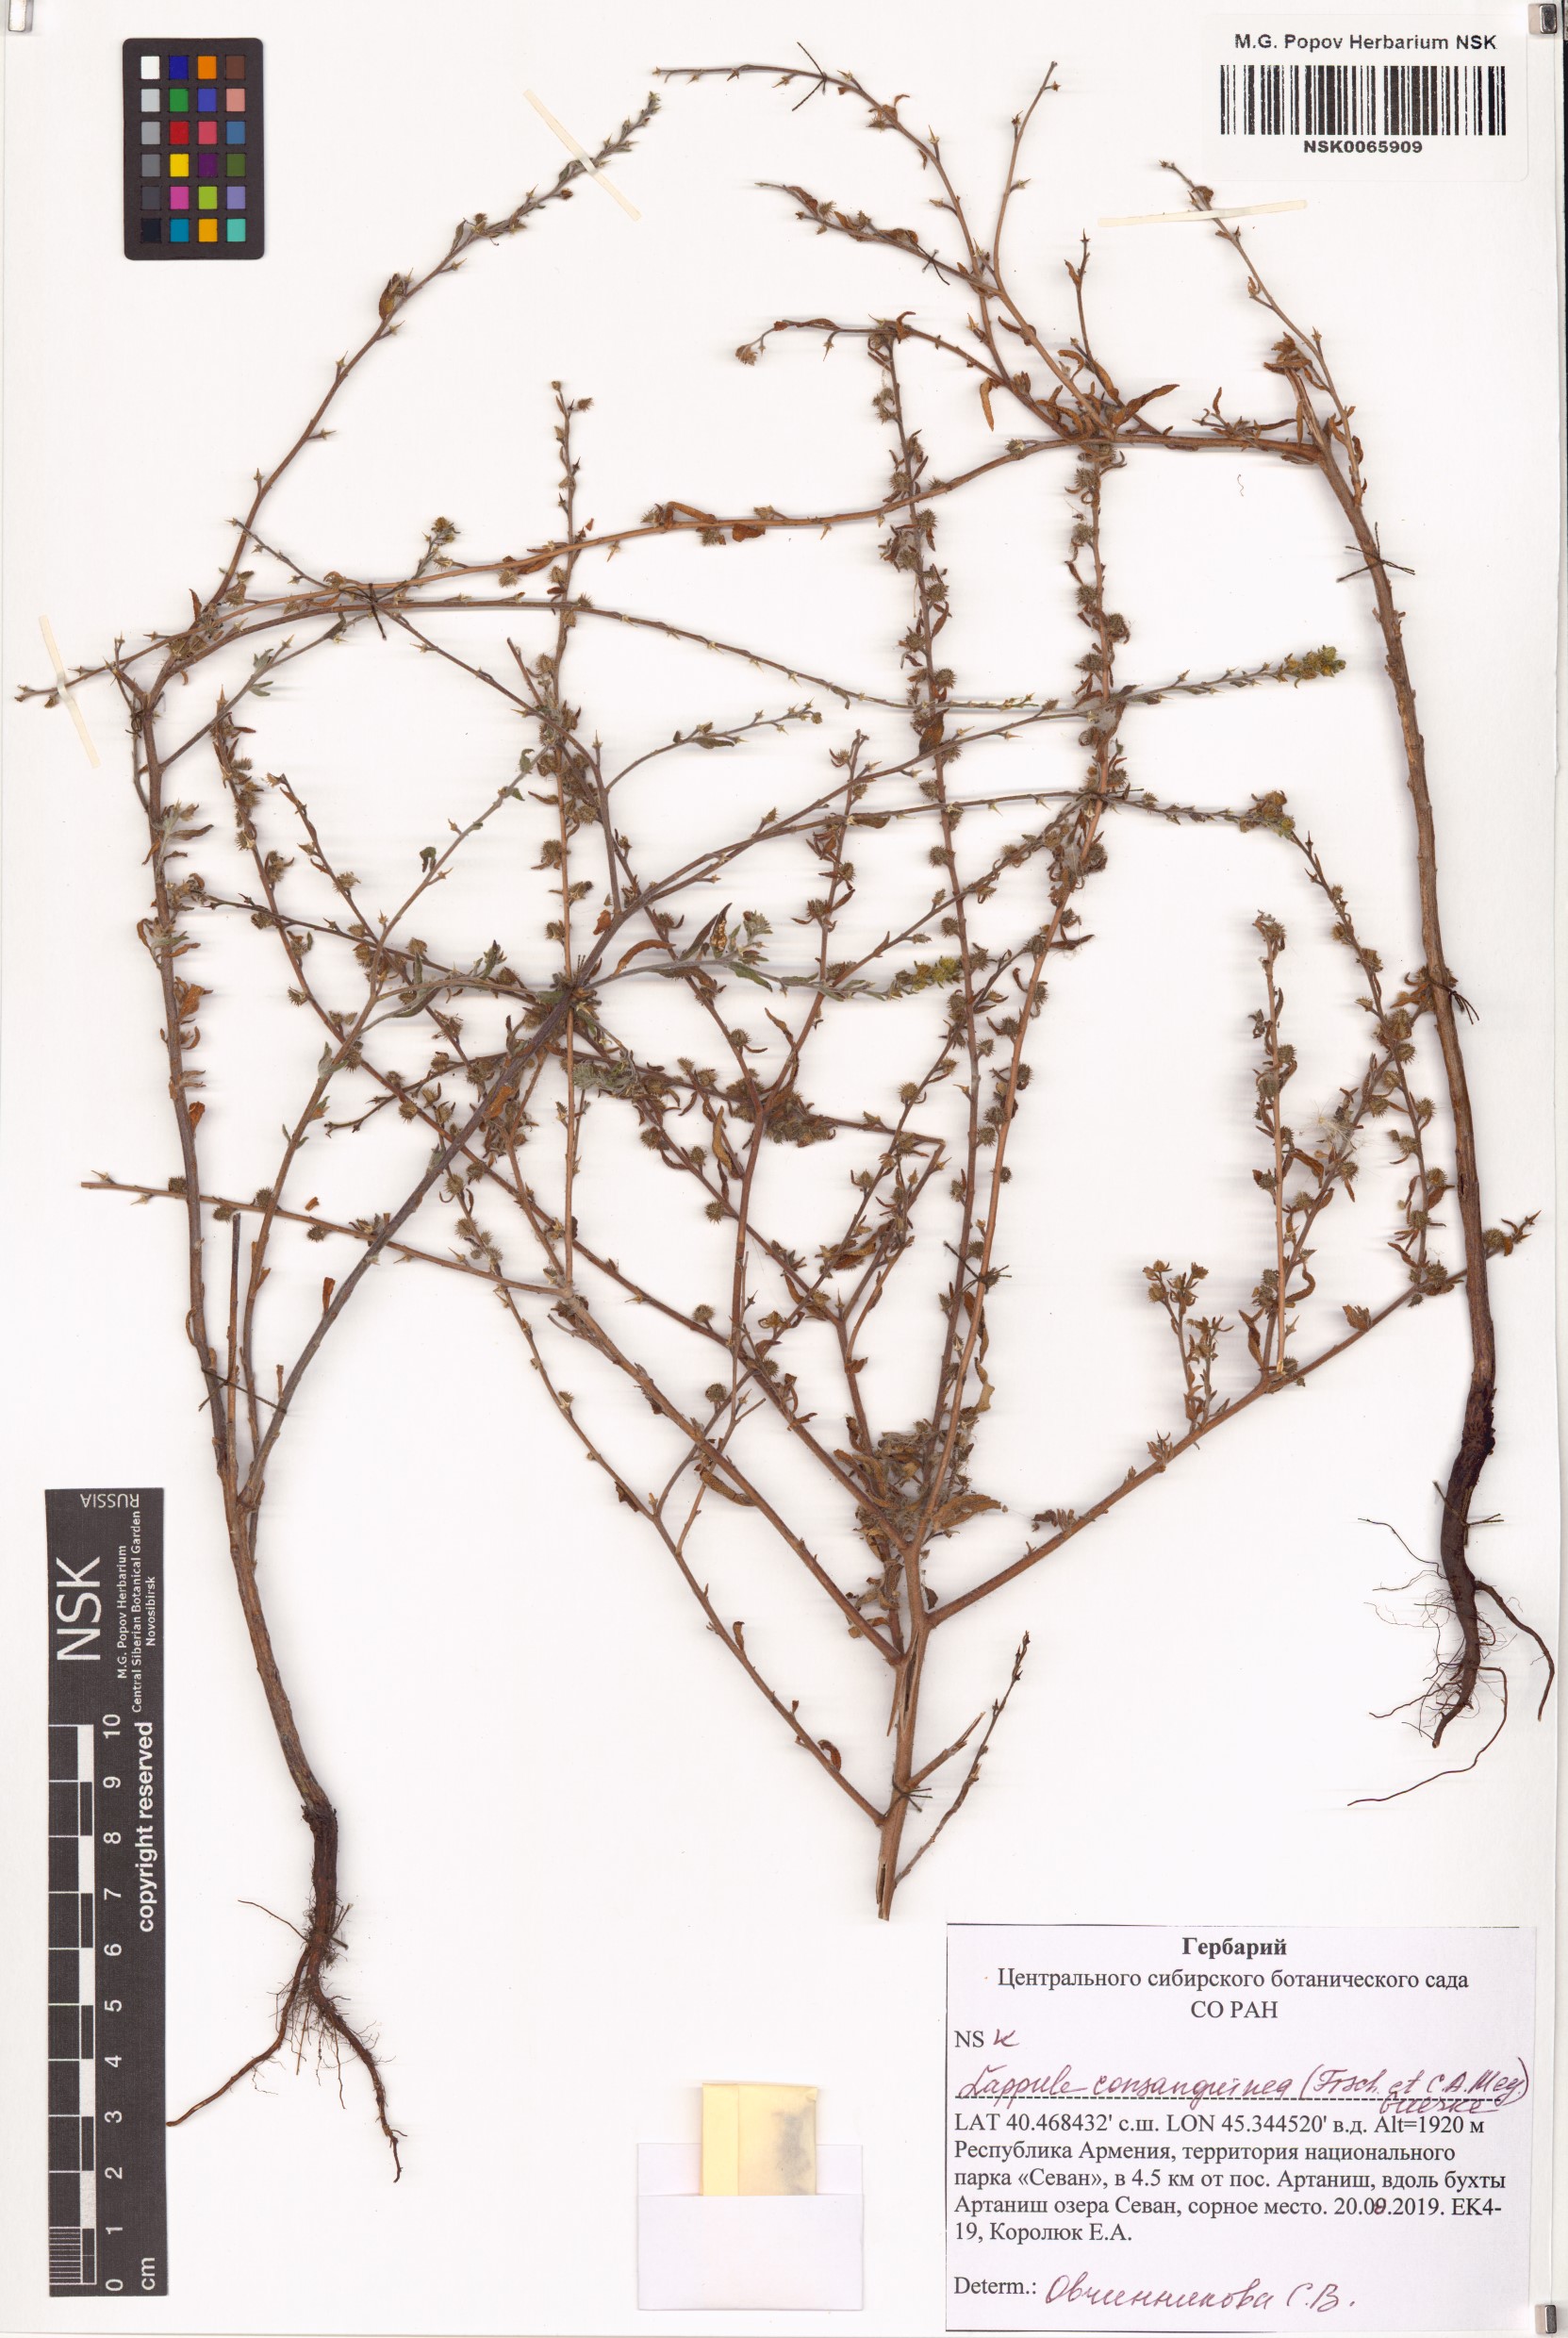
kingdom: Plantae
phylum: Tracheophyta
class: Magnoliopsida
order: Boraginales
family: Boraginaceae
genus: Lappula
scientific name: Lappula squarrosa
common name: European stickseed
